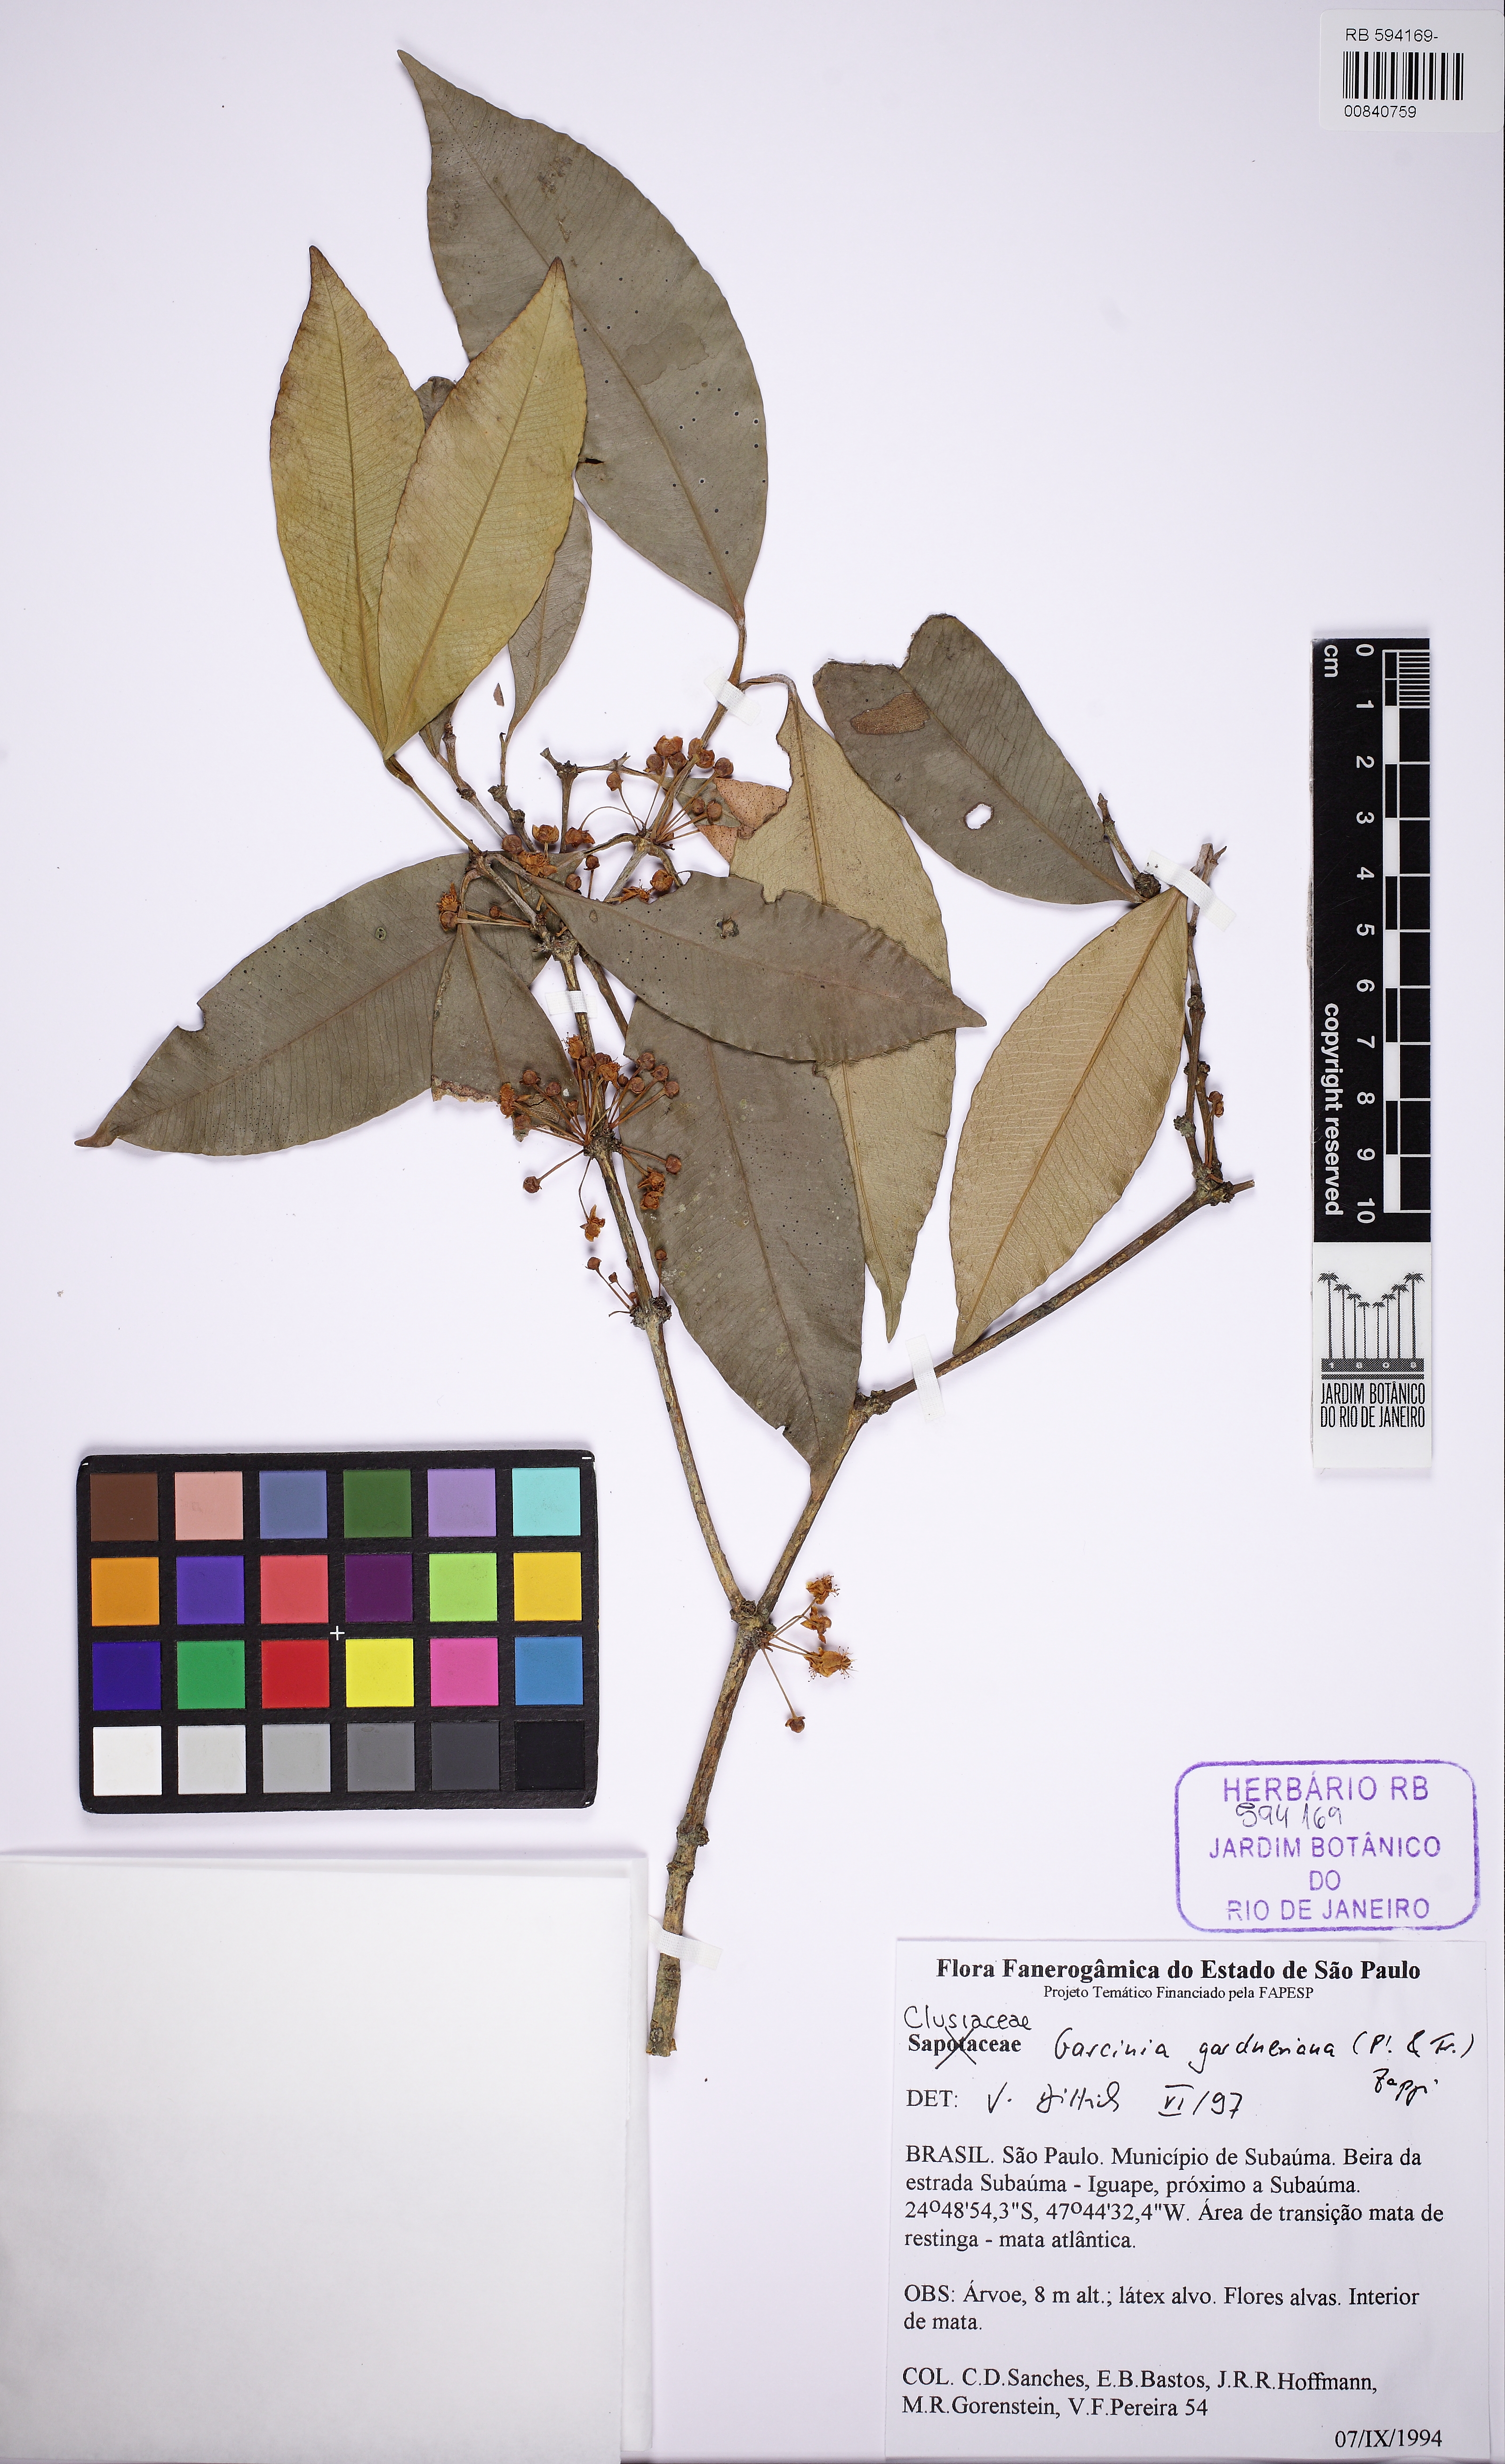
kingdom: Plantae
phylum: Tracheophyta
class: Magnoliopsida
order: Malpighiales
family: Clusiaceae
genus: Garcinia
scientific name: Garcinia gardneriana
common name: Achacha
